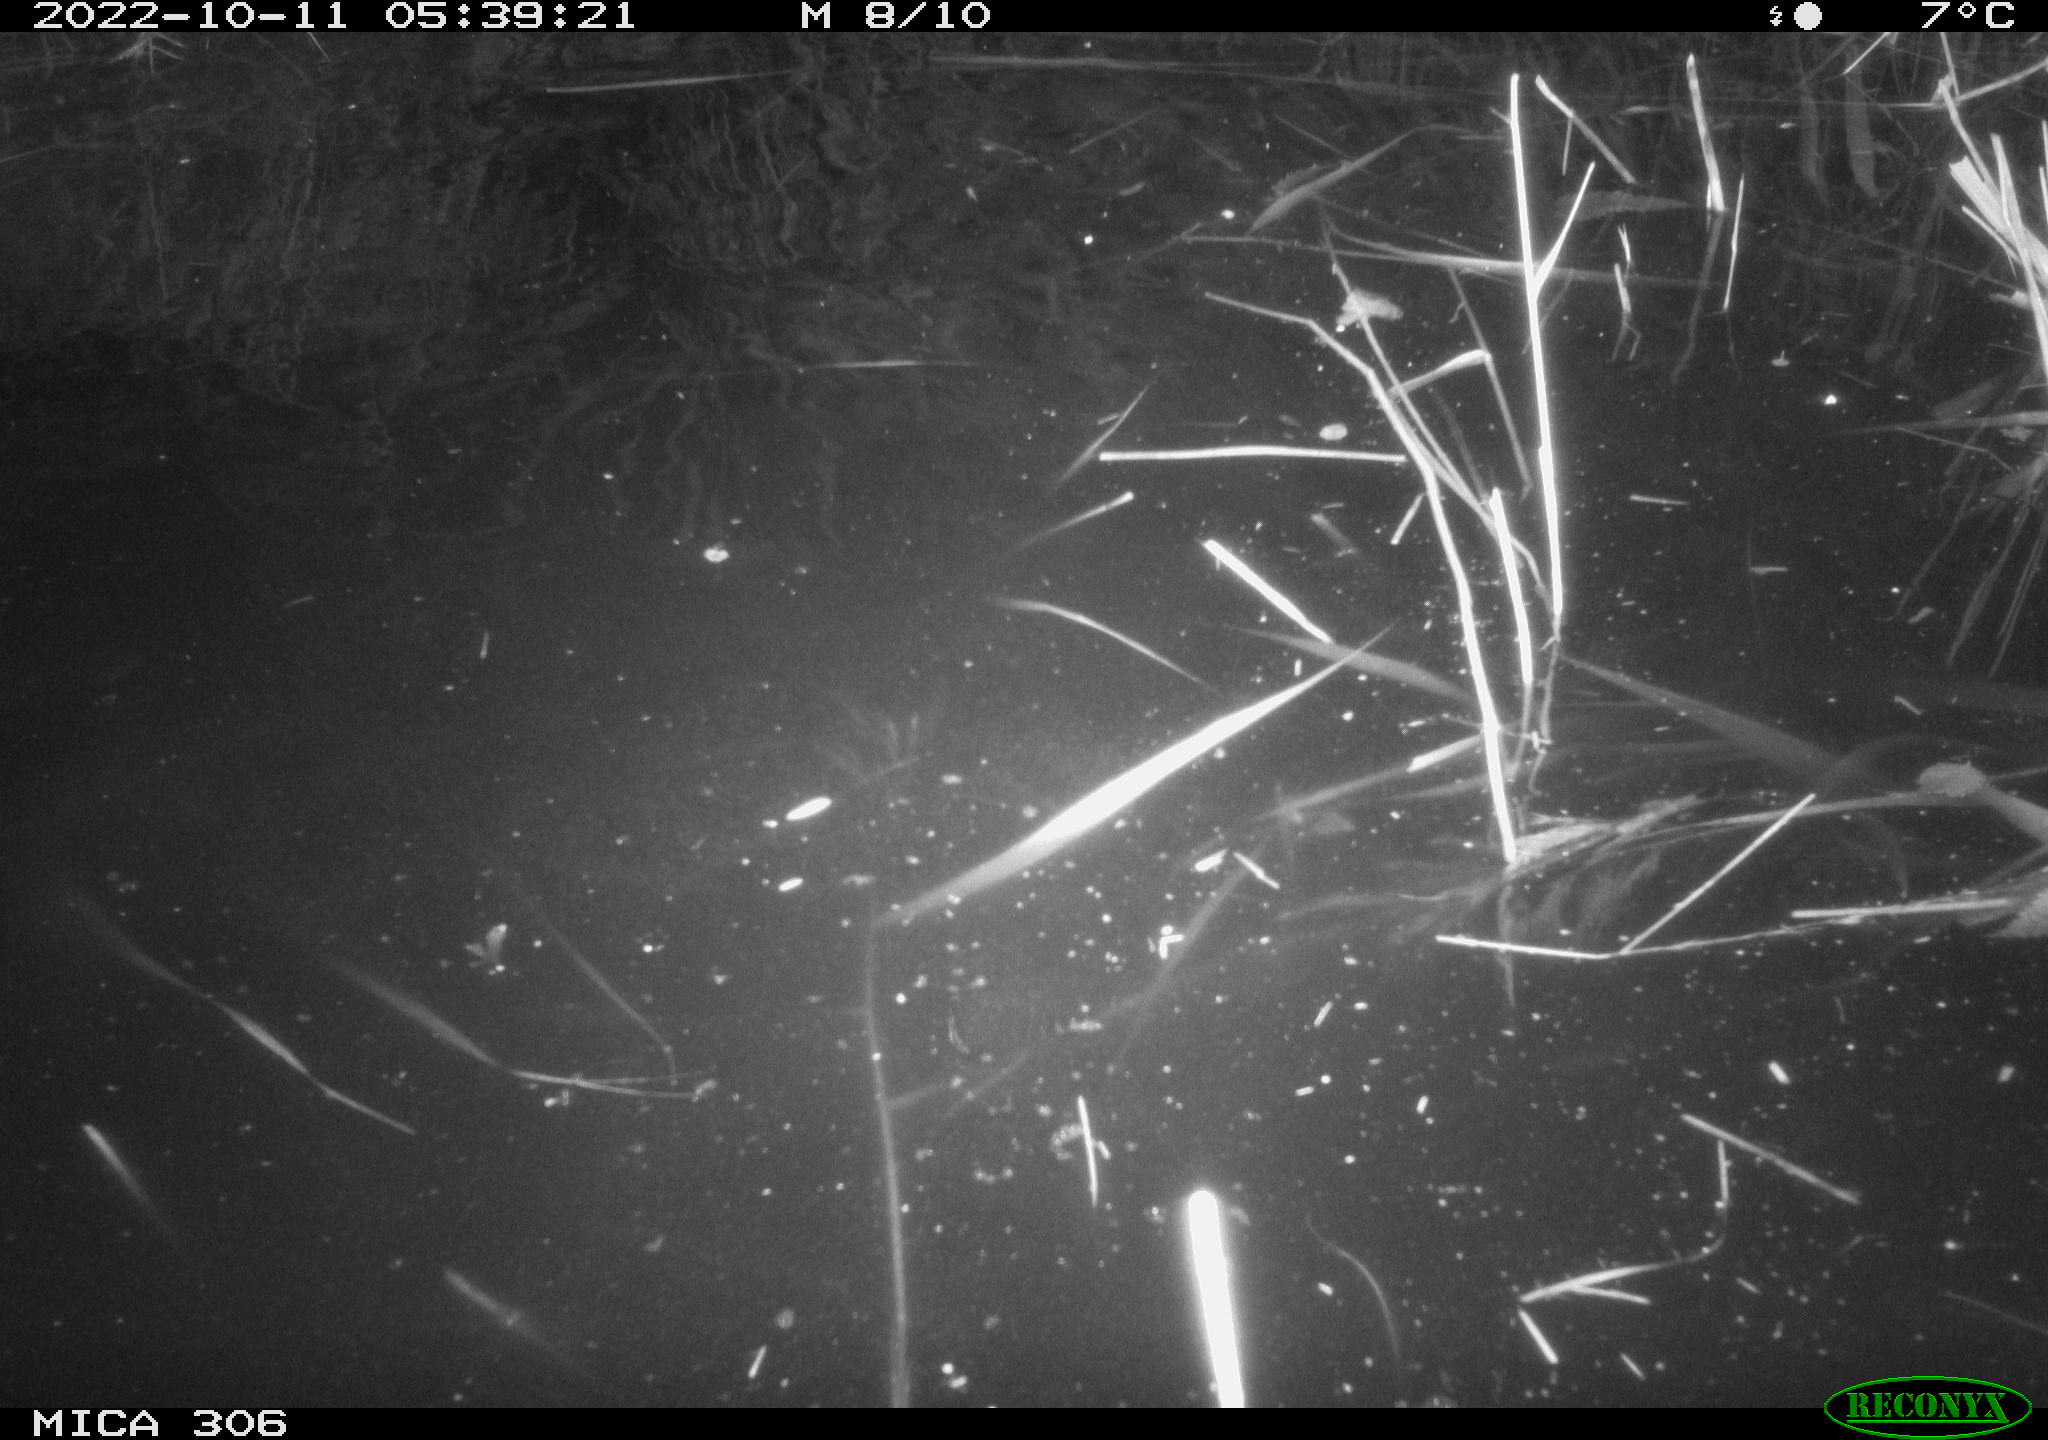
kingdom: Animalia
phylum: Chordata
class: Mammalia
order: Rodentia
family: Muridae
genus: Rattus
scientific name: Rattus norvegicus
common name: Brown rat
